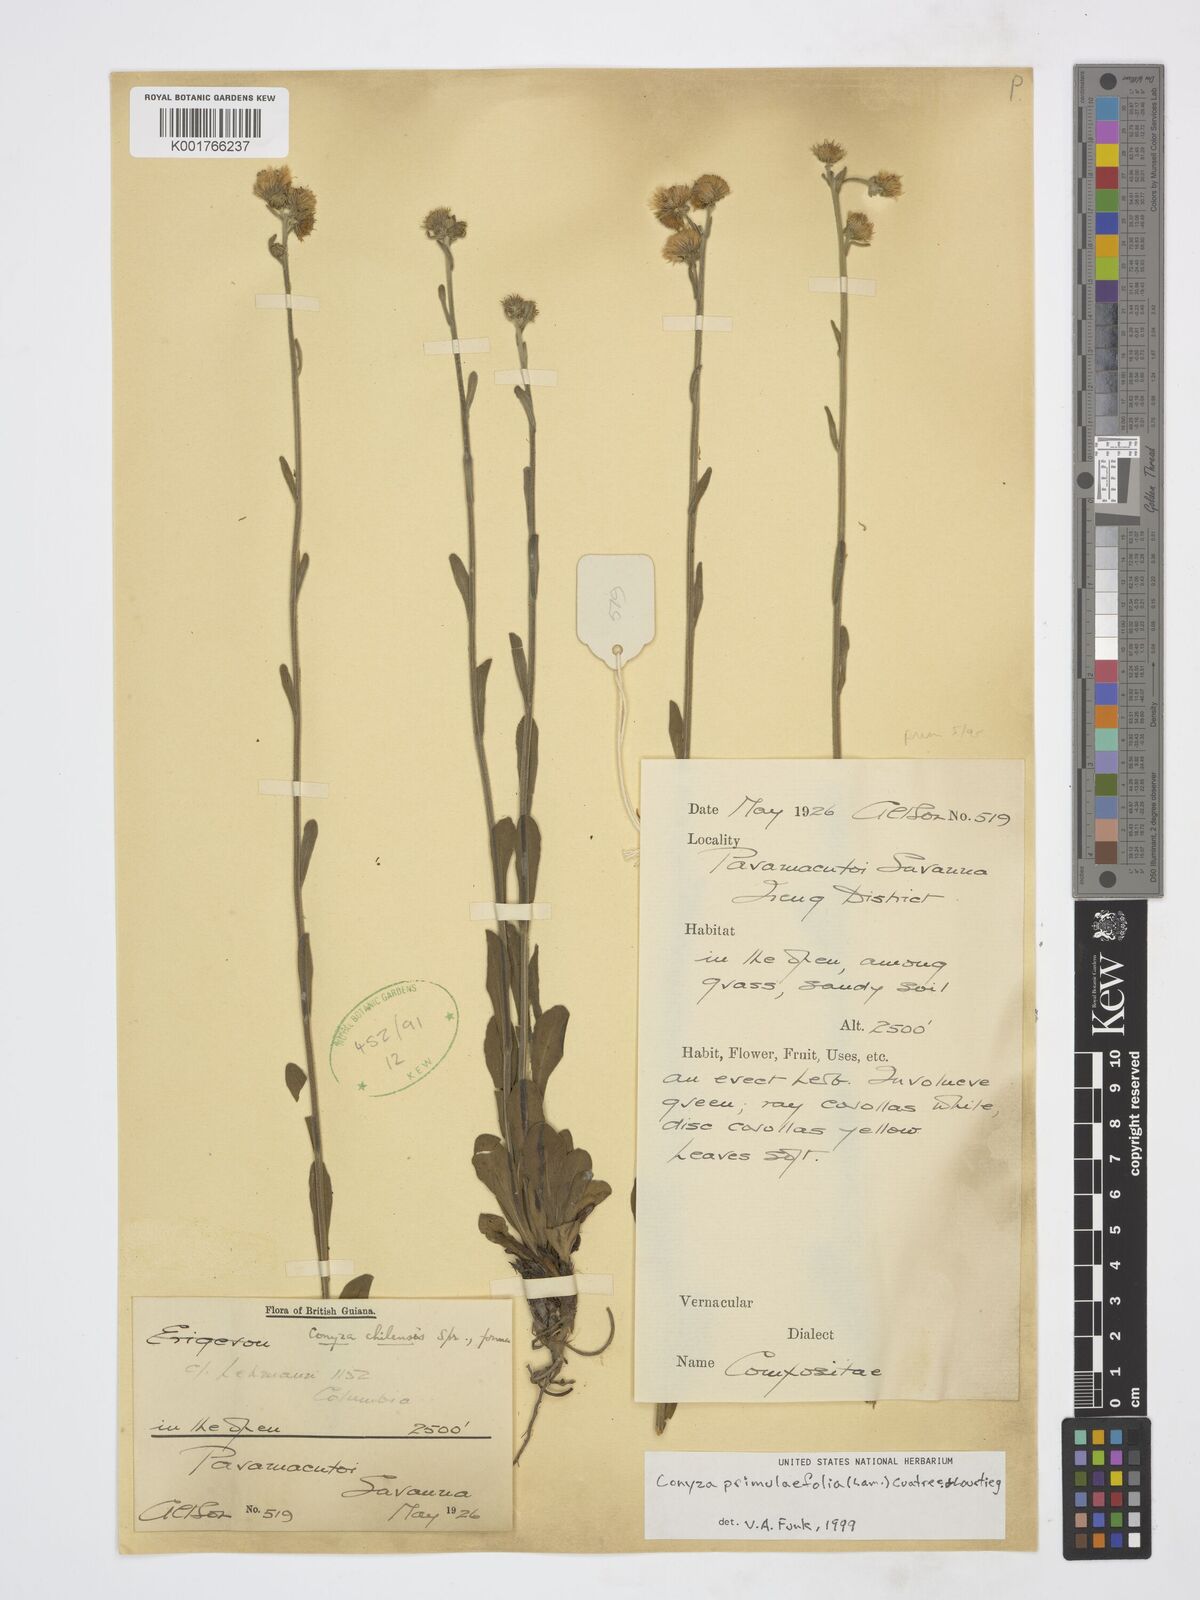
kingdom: Plantae
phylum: Tracheophyta
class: Magnoliopsida
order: Asterales
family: Asteraceae
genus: Erigeron
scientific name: Erigeron primulifolius
